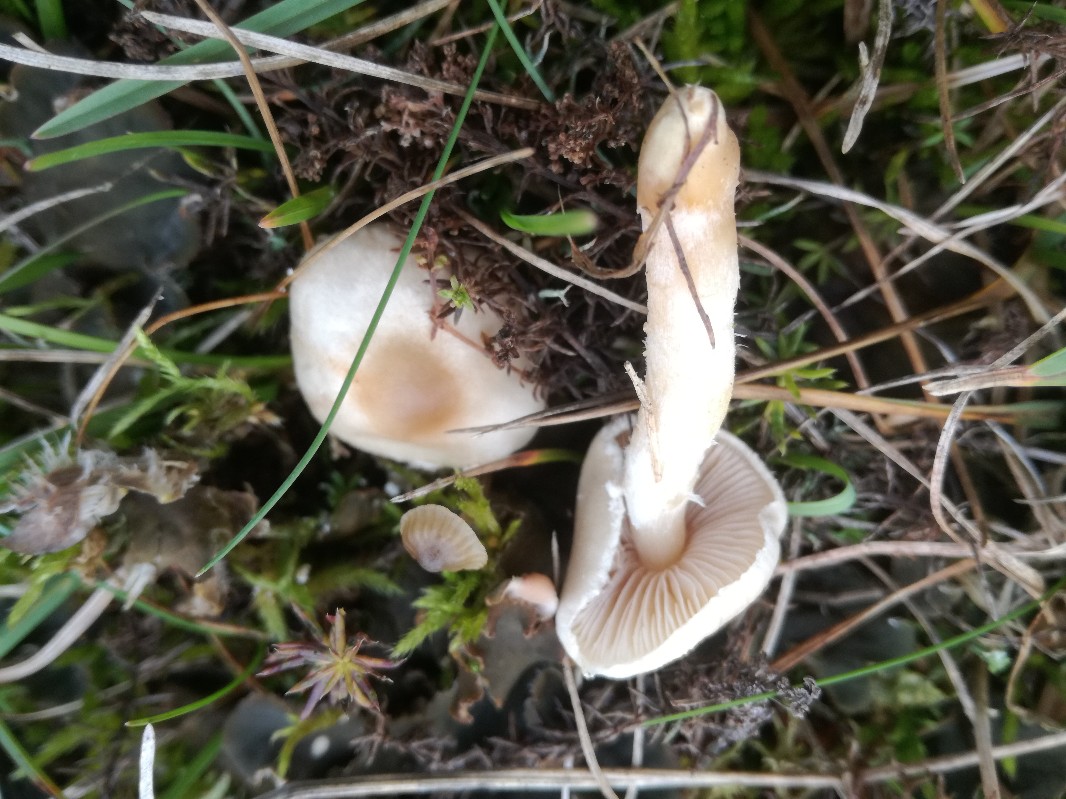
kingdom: Fungi
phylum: Basidiomycota
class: Agaricomycetes
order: Agaricales
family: Agaricaceae
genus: Lepiota
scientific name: Lepiota erminea
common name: hvid parasolhat
